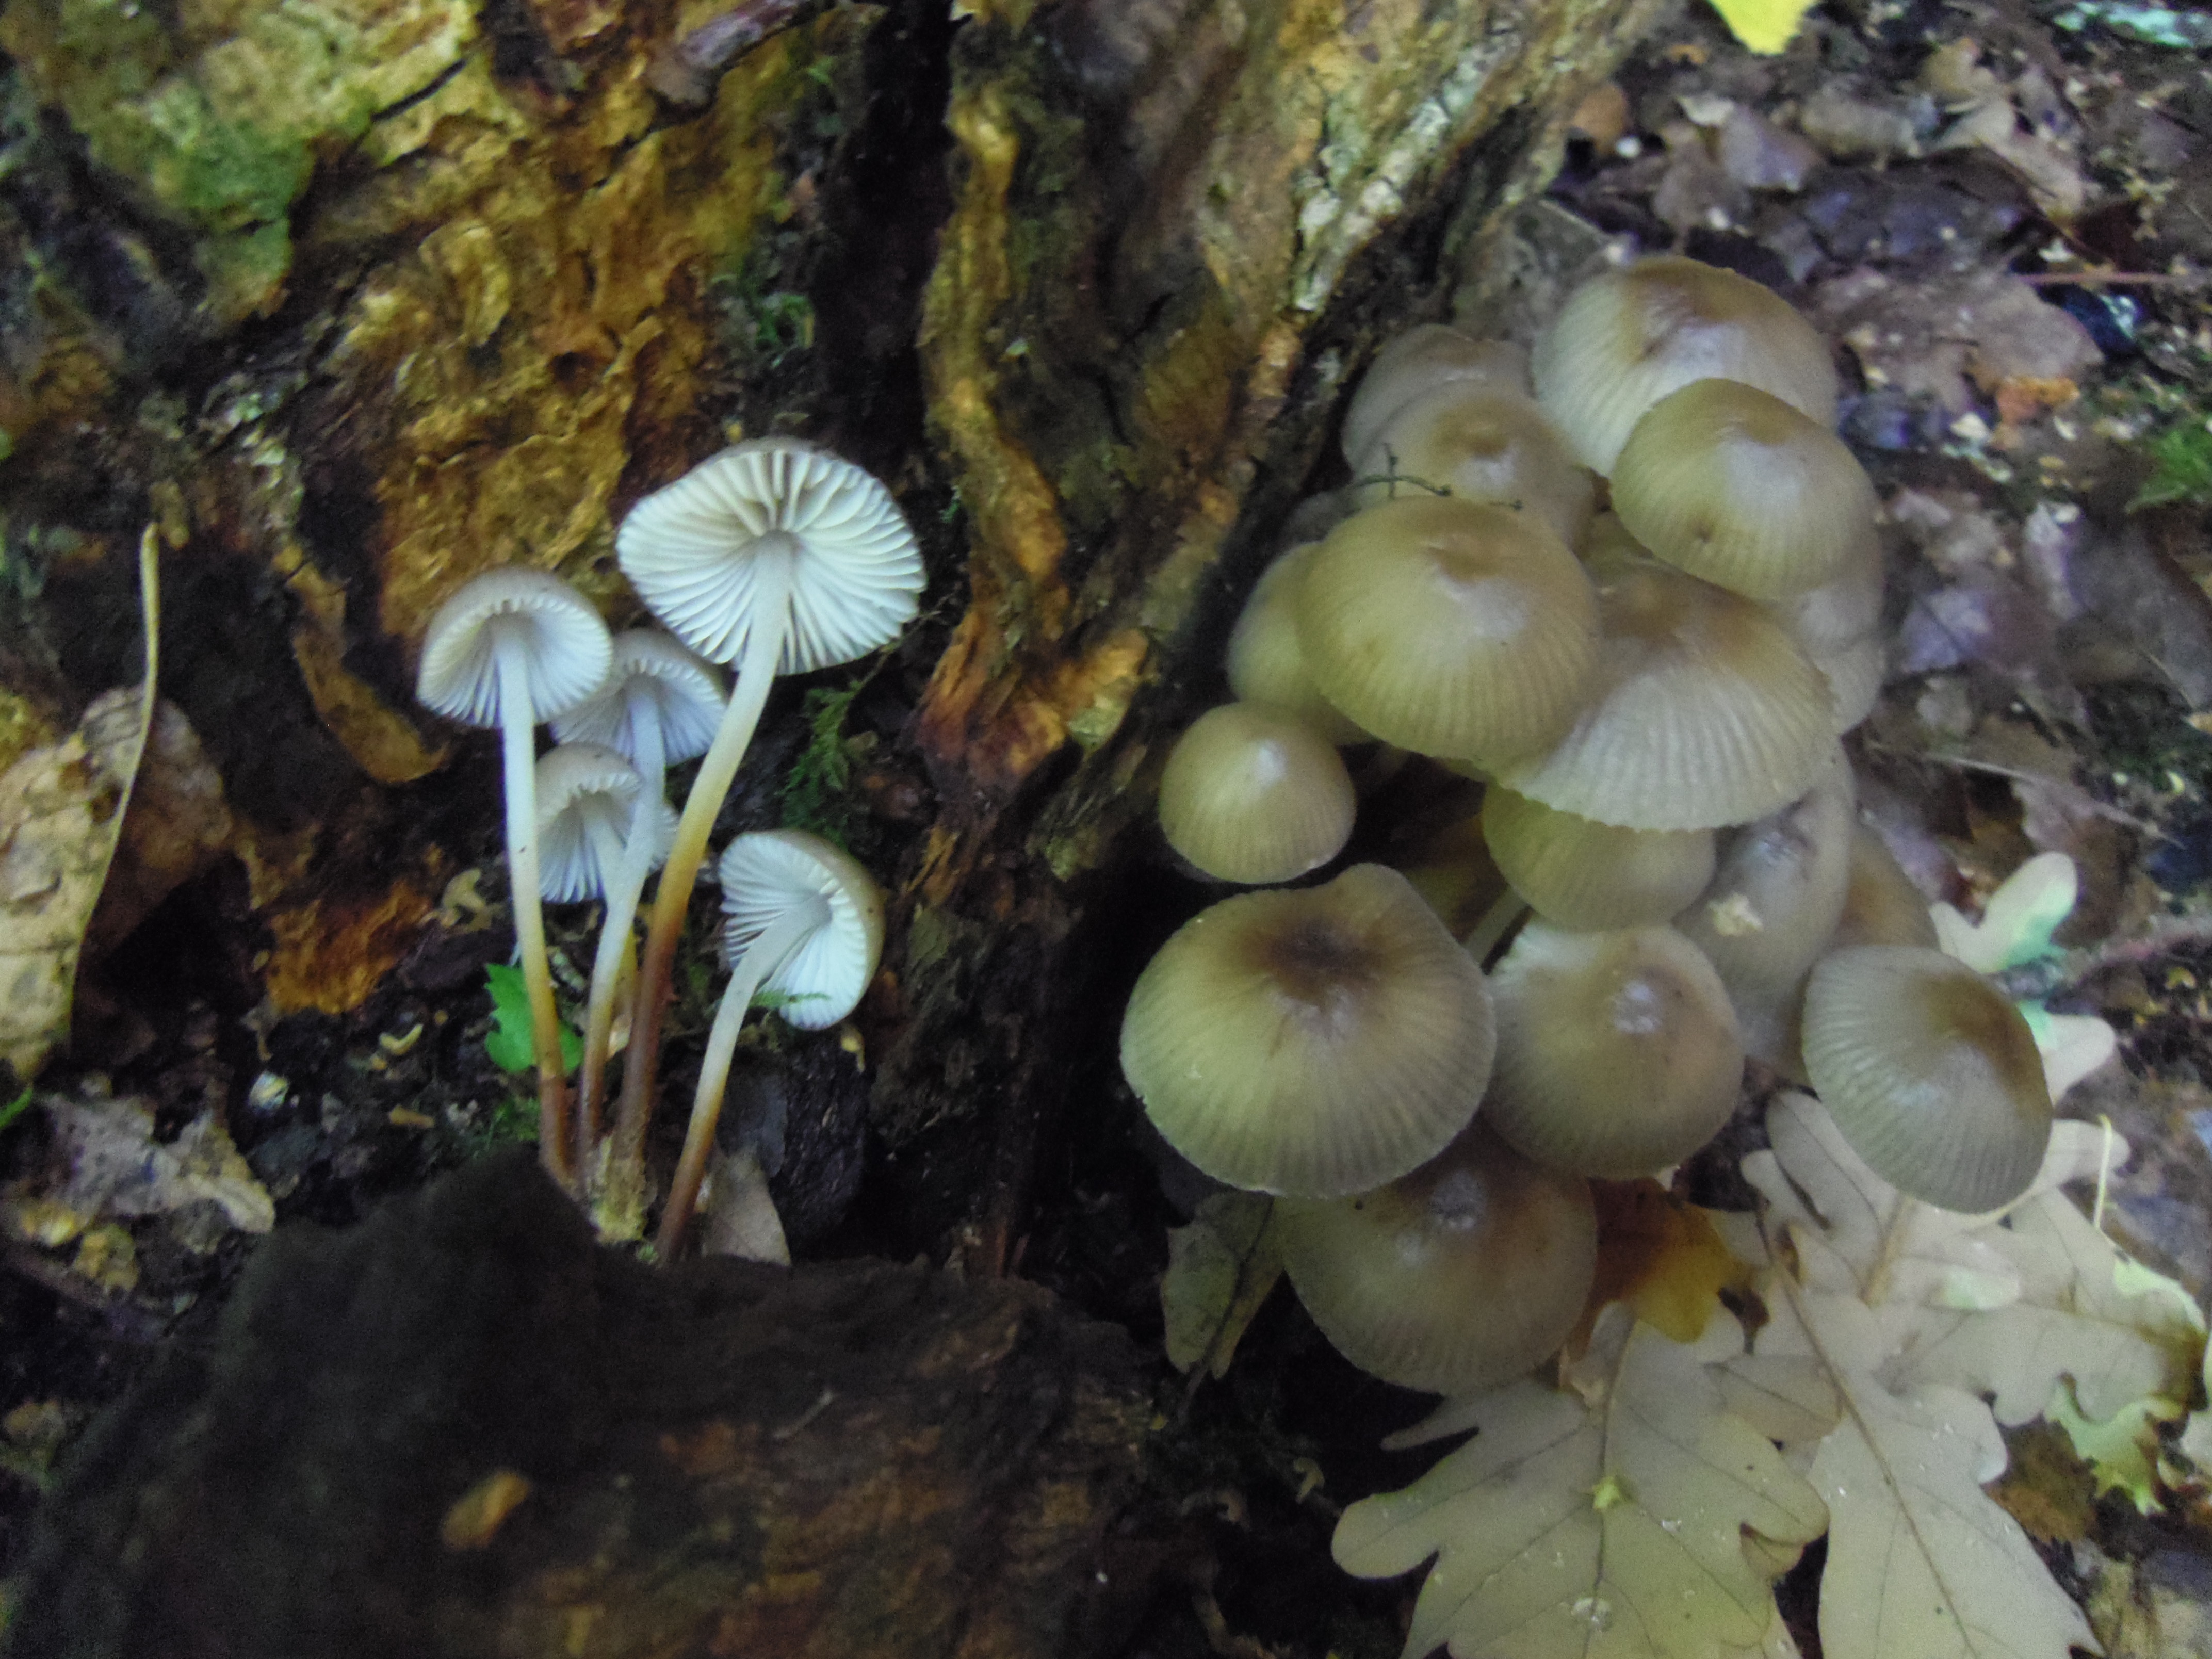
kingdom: Fungi
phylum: Basidiomycota
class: Agaricomycetes
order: Agaricales
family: Mycenaceae
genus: Mycena
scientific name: Mycena inclinata
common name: Clustered bonnet
